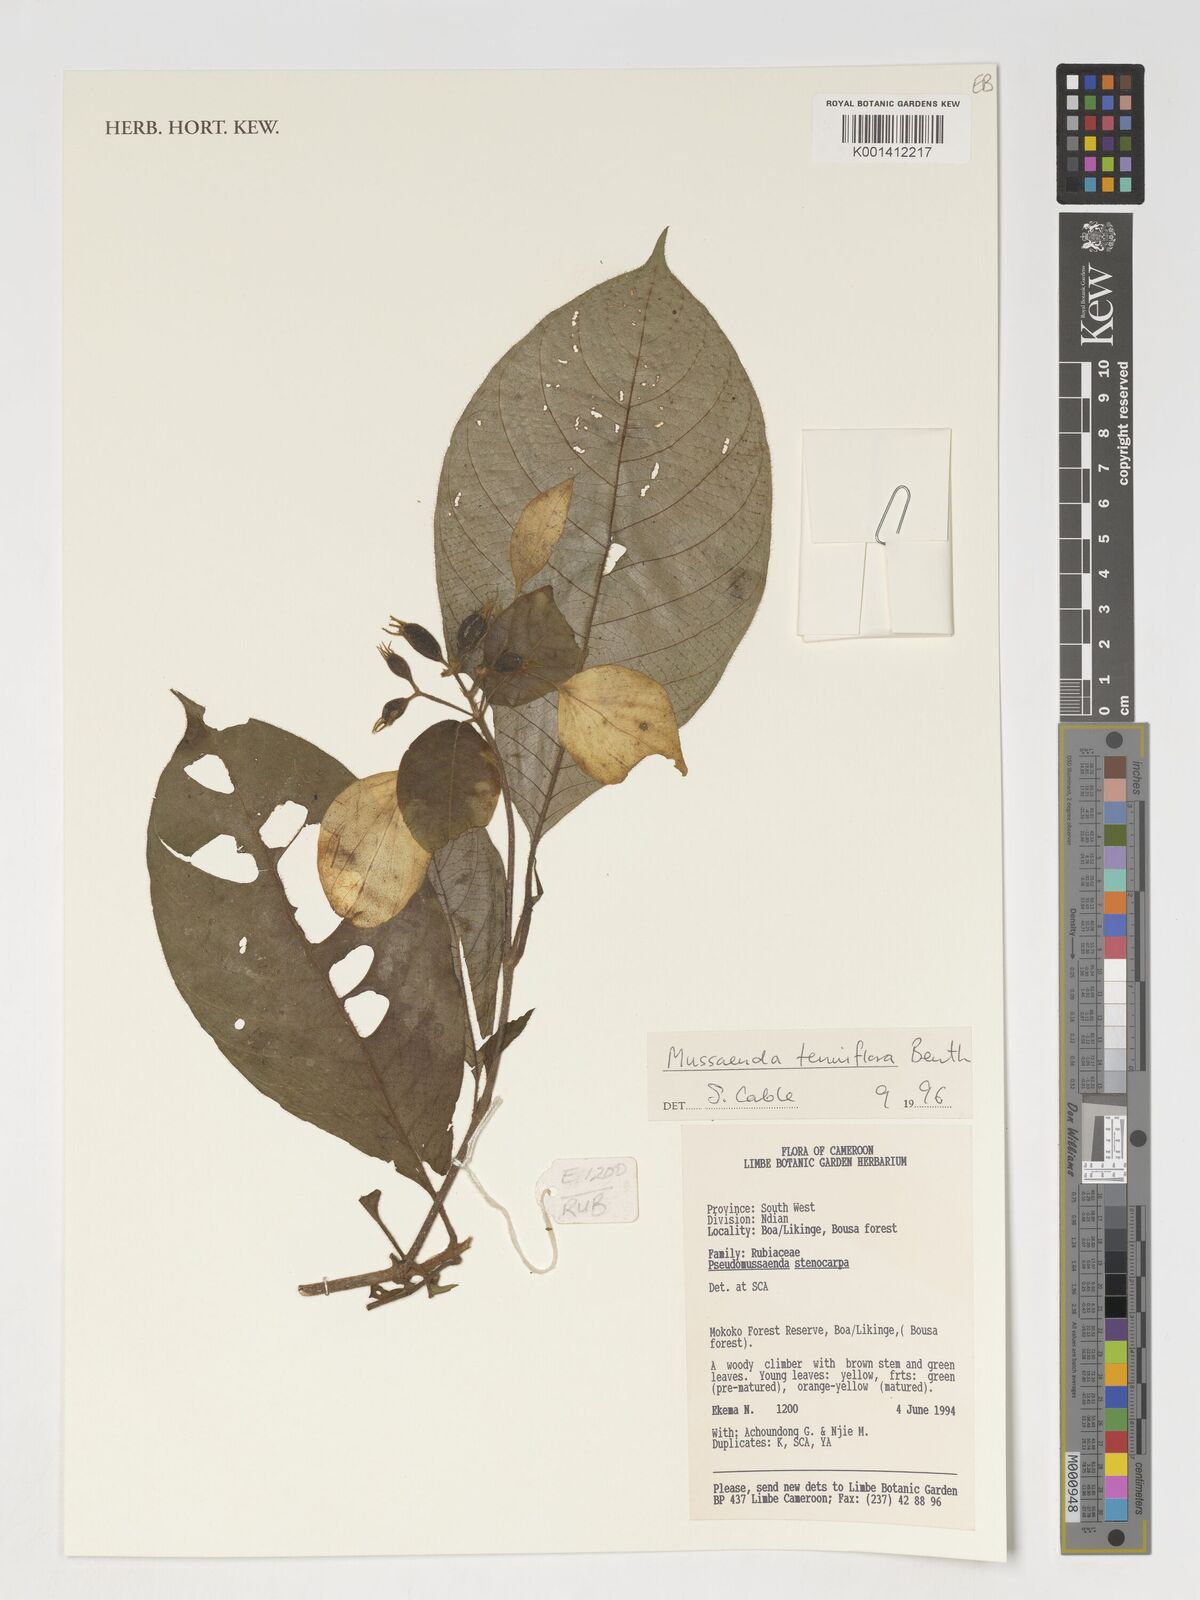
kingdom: Plantae
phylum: Tracheophyta
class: Magnoliopsida
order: Gentianales
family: Rubiaceae
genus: Mussaenda
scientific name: Mussaenda tenuiflora
